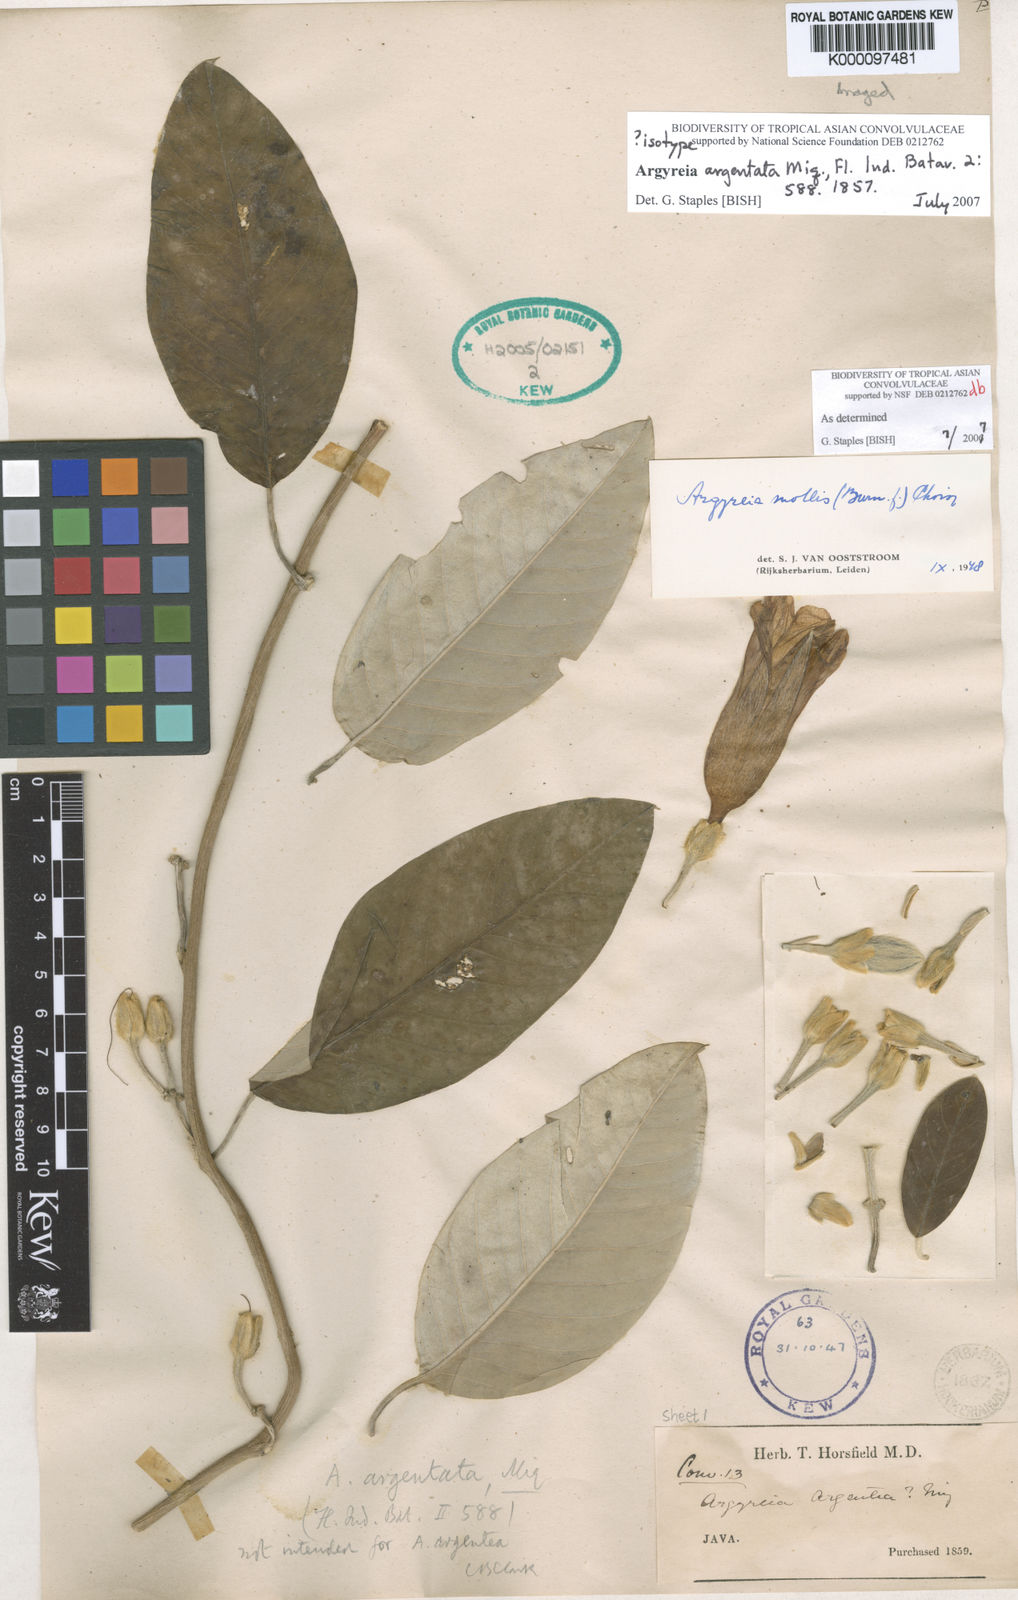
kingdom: Plantae
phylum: Tracheophyta
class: Magnoliopsida
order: Solanales
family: Convolvulaceae
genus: Argyreia
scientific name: Argyreia mollis
